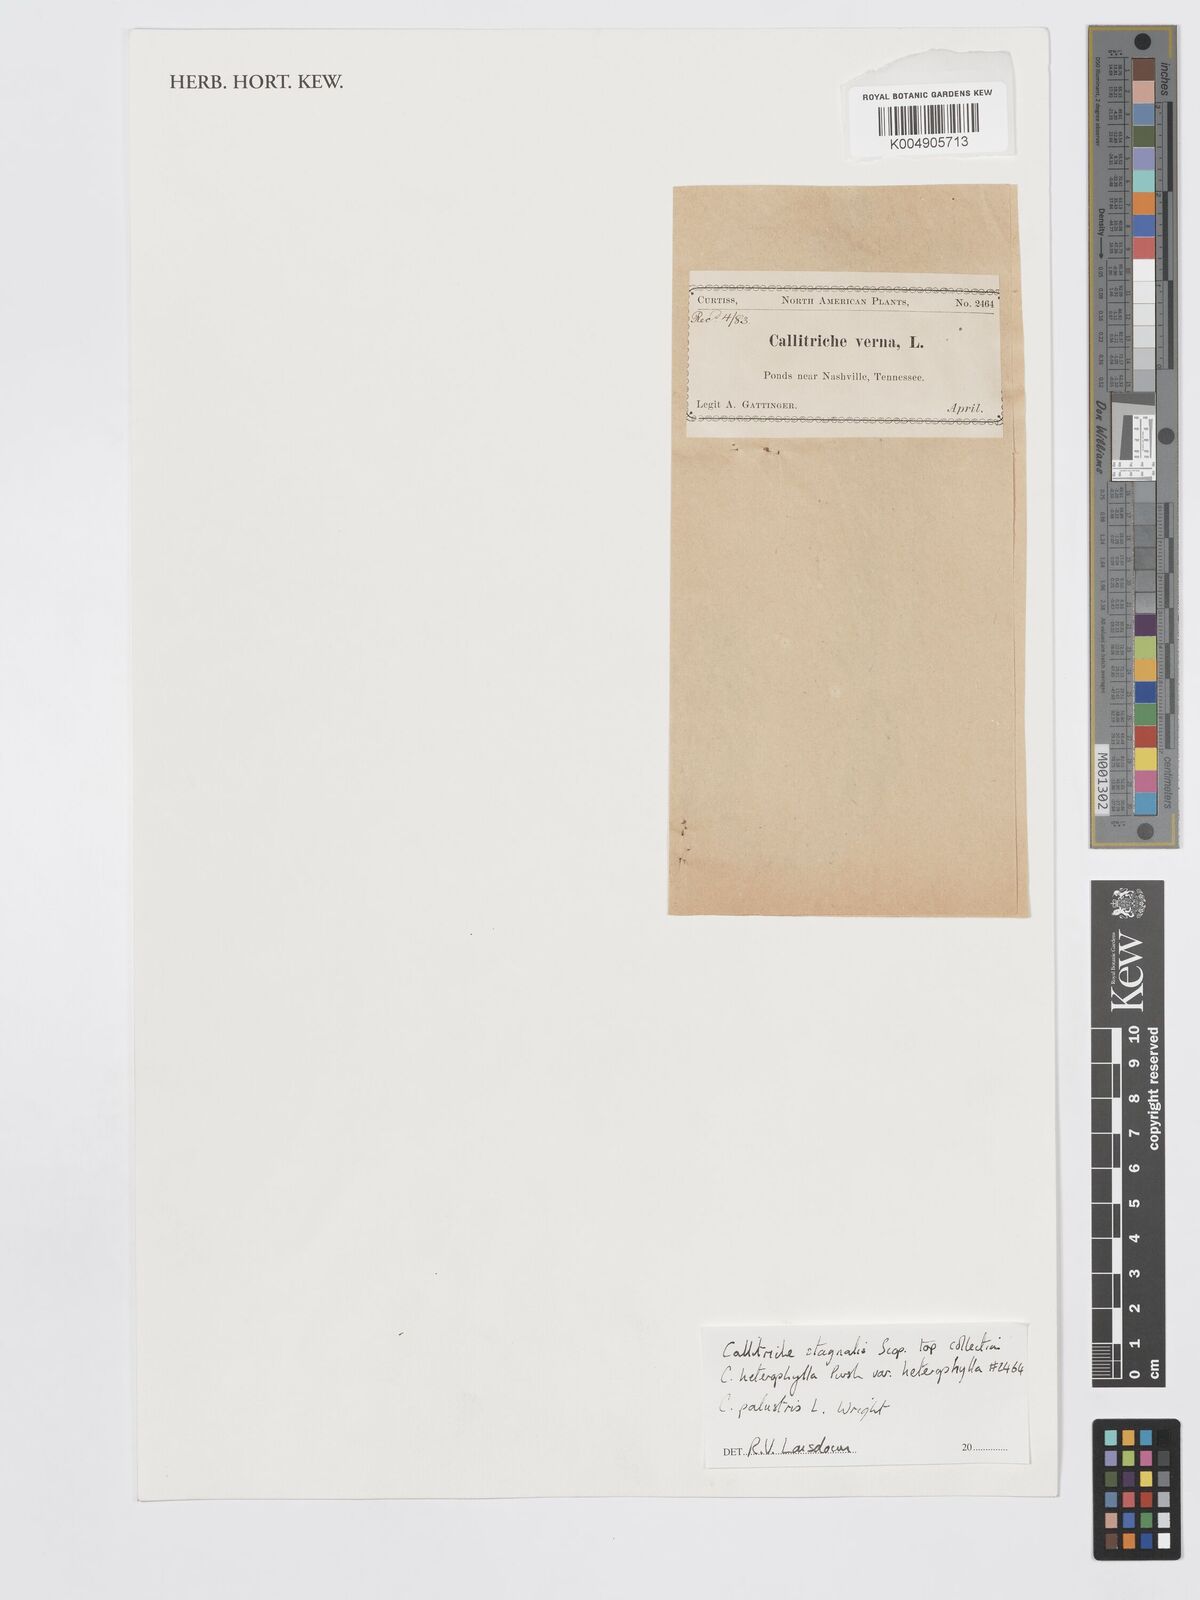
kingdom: Plantae
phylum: Tracheophyta
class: Magnoliopsida
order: Lamiales
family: Plantaginaceae
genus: Callitriche
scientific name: Callitriche stagnalis
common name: Common water-starwort
